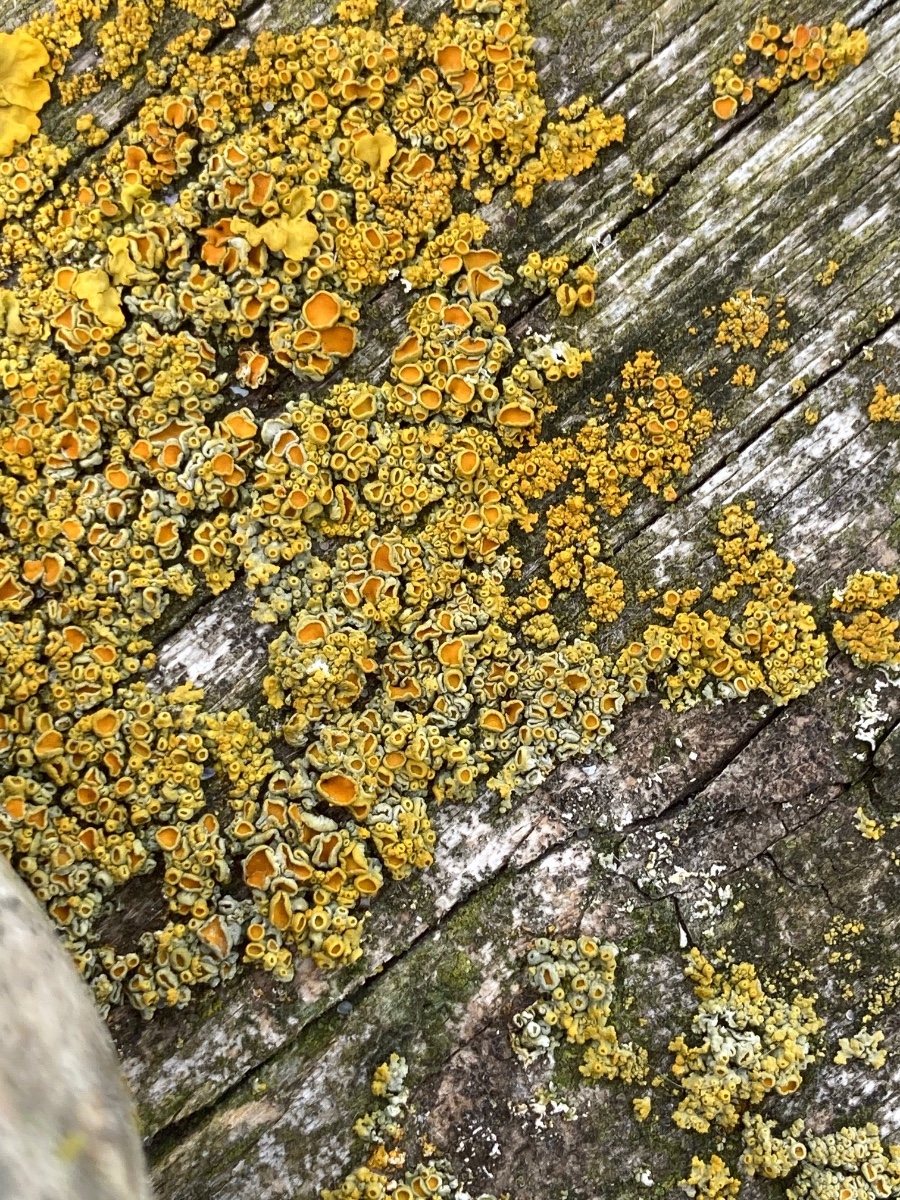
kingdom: Fungi
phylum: Ascomycota
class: Lecanoromycetes
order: Teloschistales
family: Teloschistaceae
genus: Polycauliona
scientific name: Polycauliona polycarpa
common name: mangefrugtet orangelav
